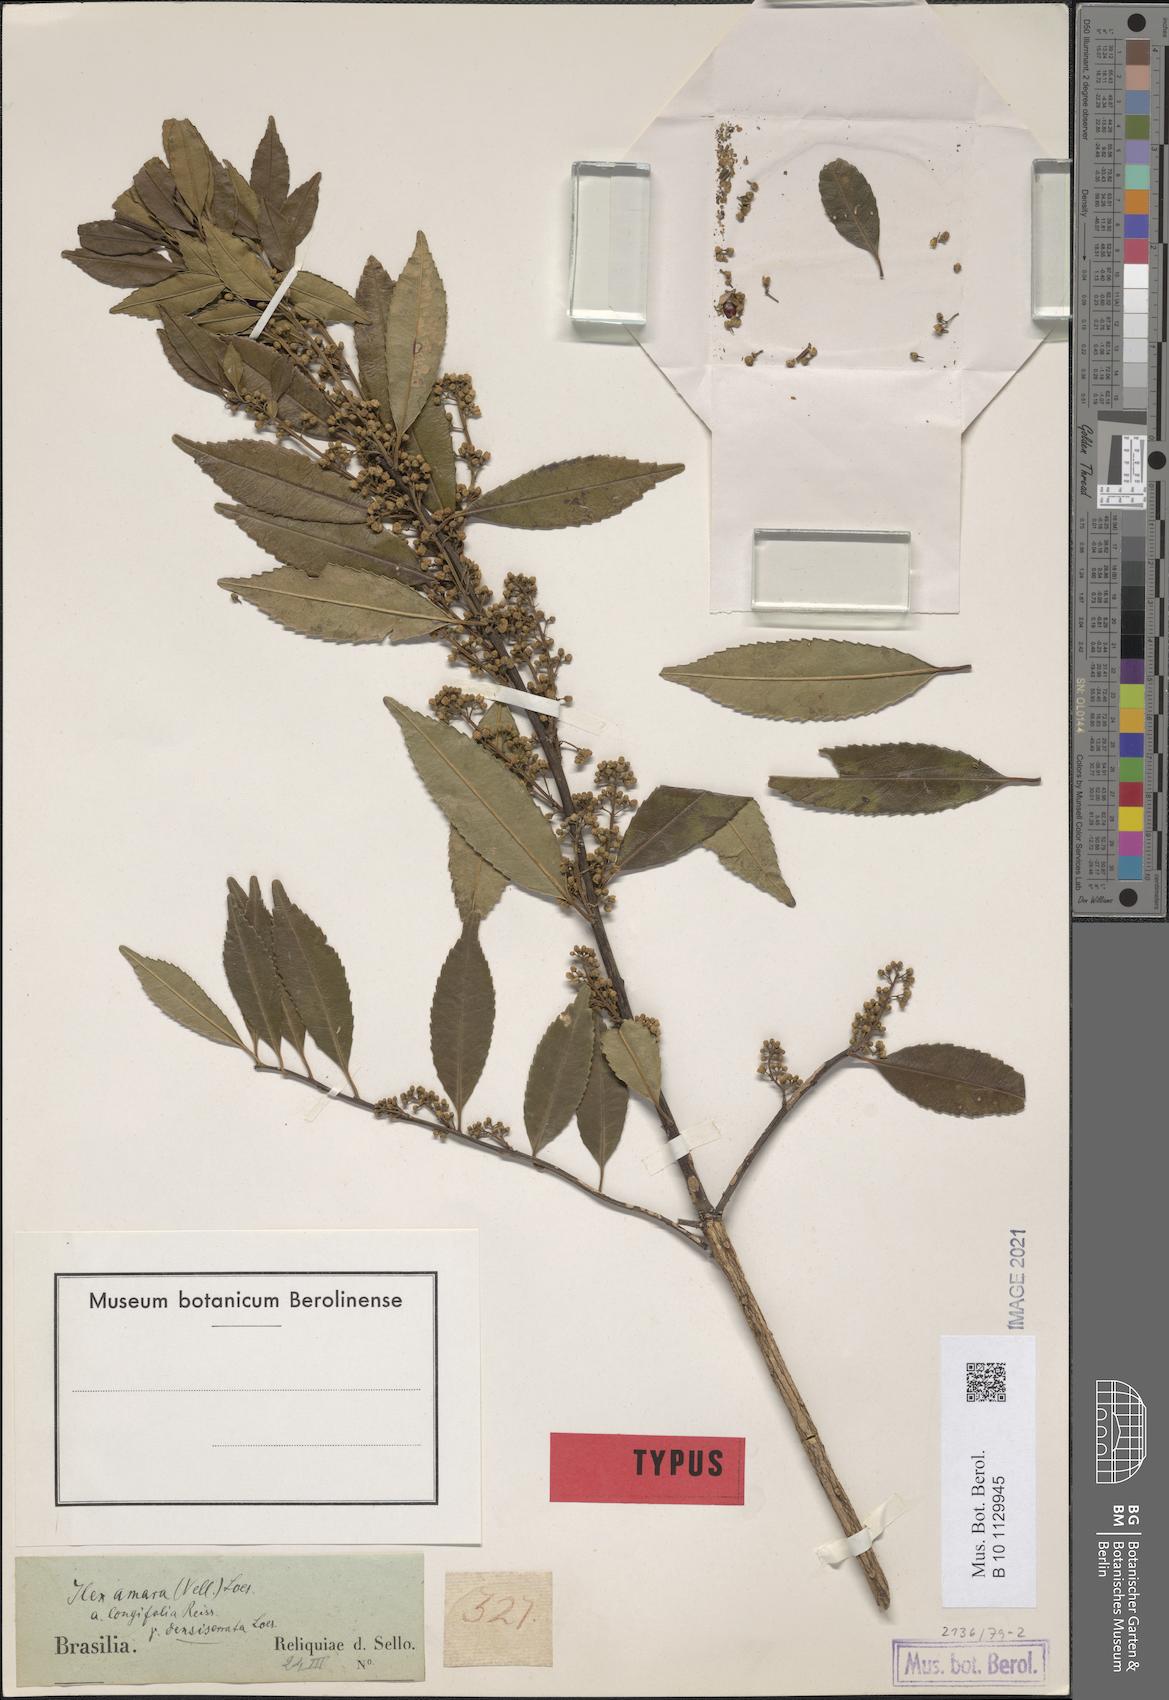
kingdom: Plantae
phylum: Tracheophyta
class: Magnoliopsida
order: Aquifoliales
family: Aquifoliaceae
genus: Ilex
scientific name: Ilex dumosa
